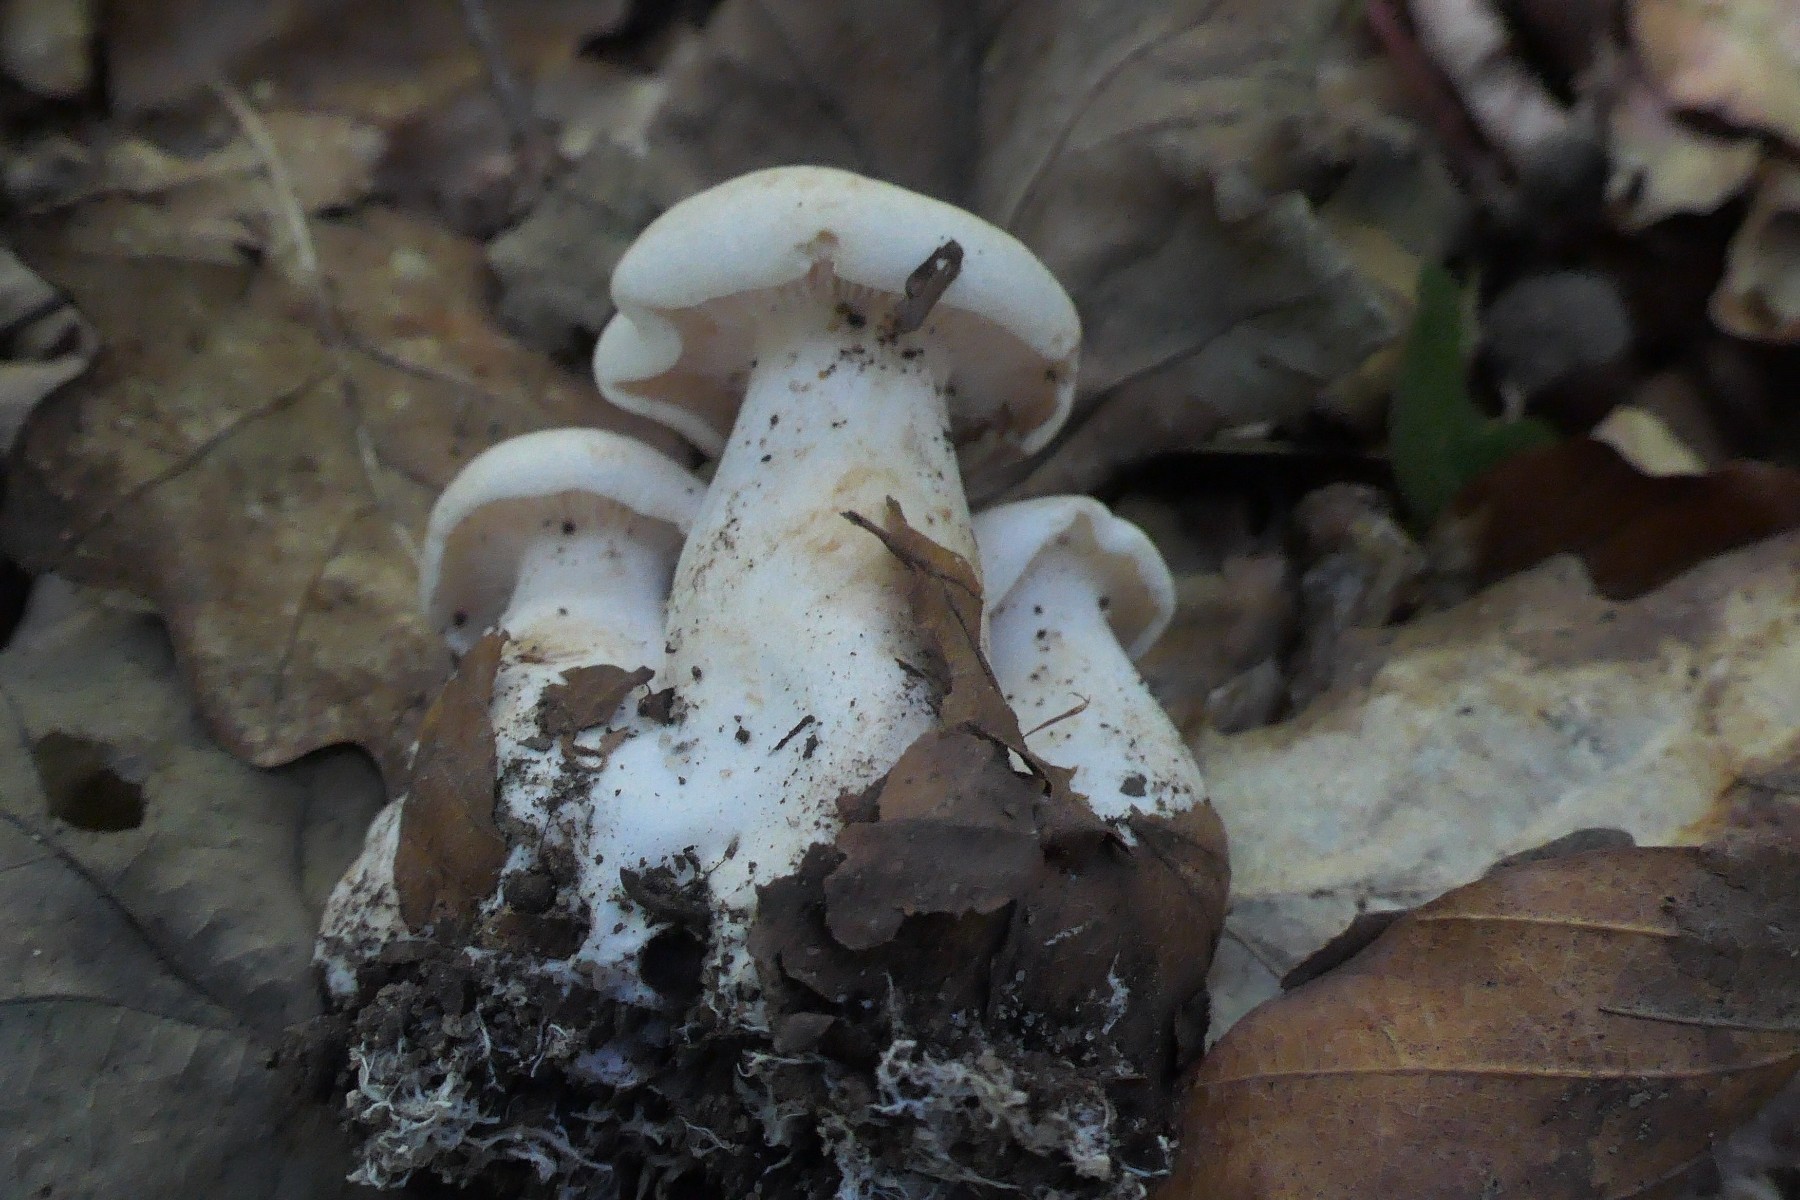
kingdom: Fungi
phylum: Basidiomycota
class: Agaricomycetes
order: Agaricales
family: Tricholomataceae
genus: Tricholoma
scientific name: Tricholoma album
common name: honning-ridderhat
